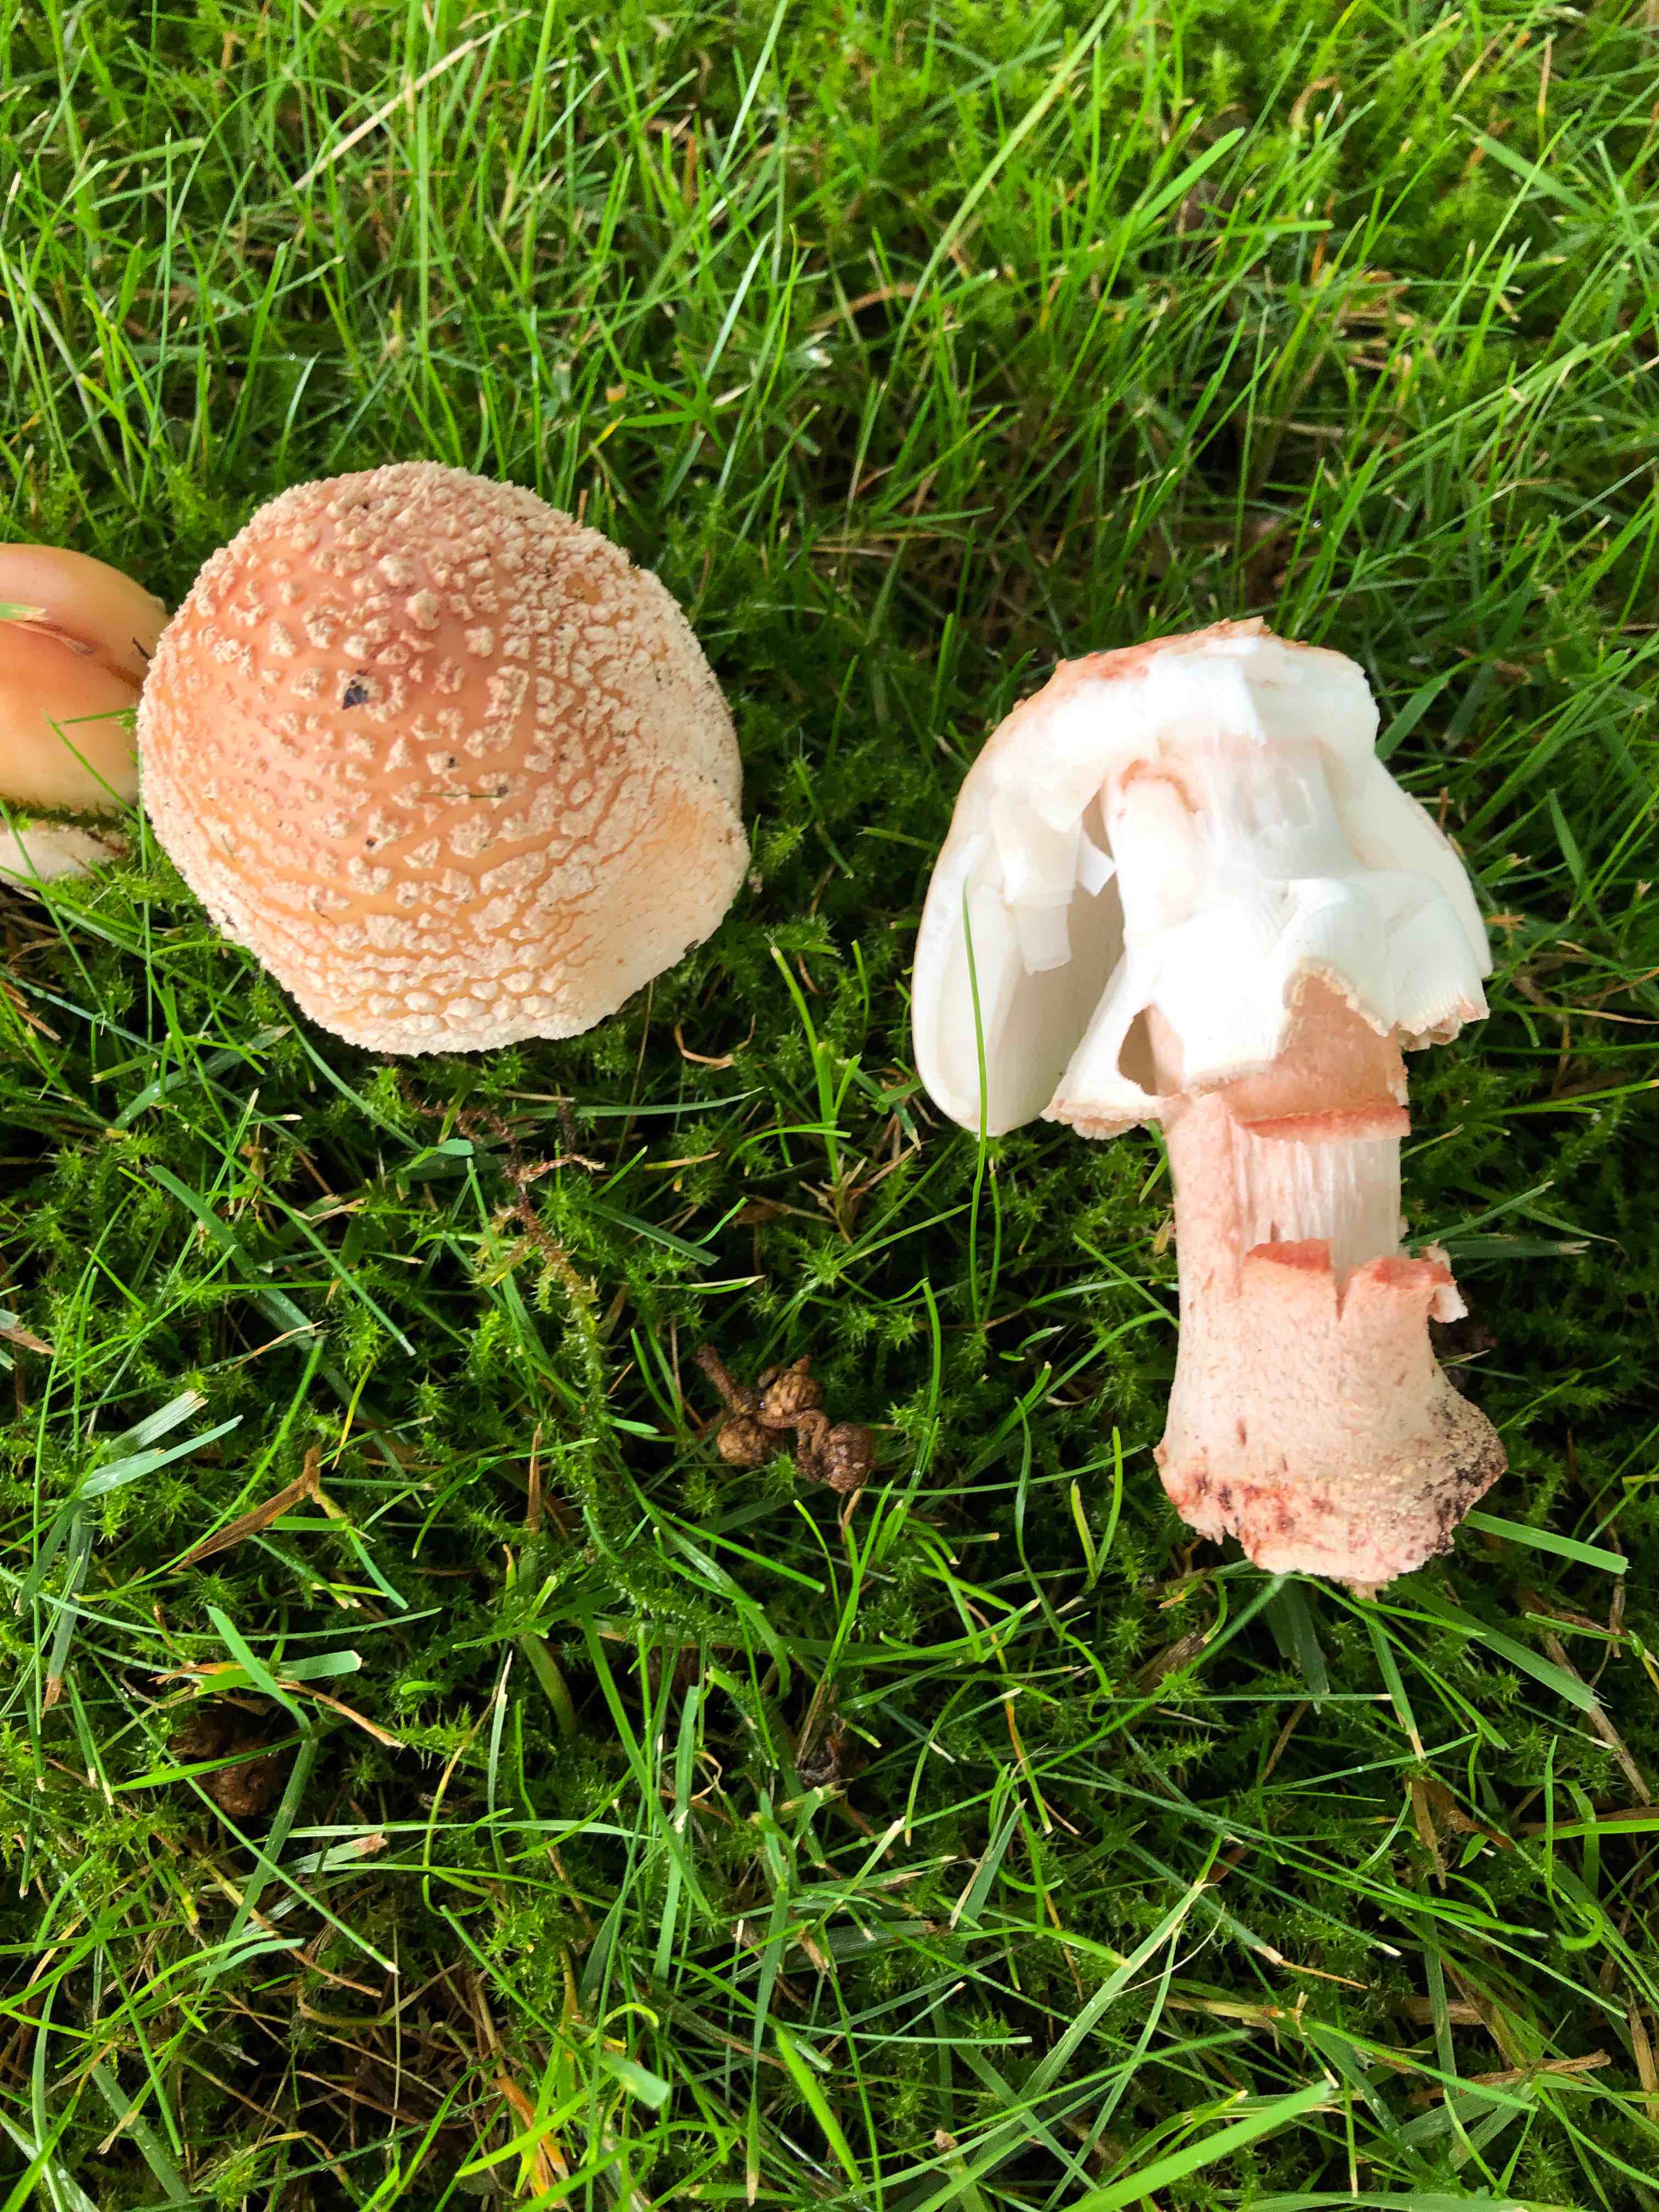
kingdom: Fungi
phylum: Basidiomycota
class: Agaricomycetes
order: Agaricales
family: Amanitaceae
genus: Amanita
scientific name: Amanita rubescens
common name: rødmende fluesvamp
